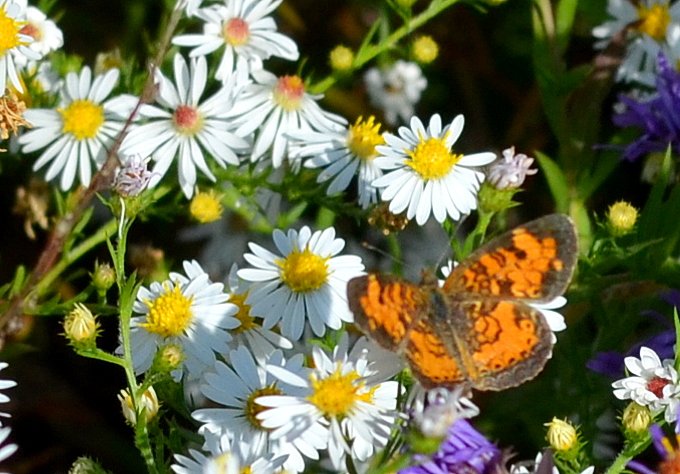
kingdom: Animalia
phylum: Arthropoda
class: Insecta
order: Lepidoptera
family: Nymphalidae
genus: Phyciodes
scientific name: Phyciodes tharos
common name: Northern Crescent
